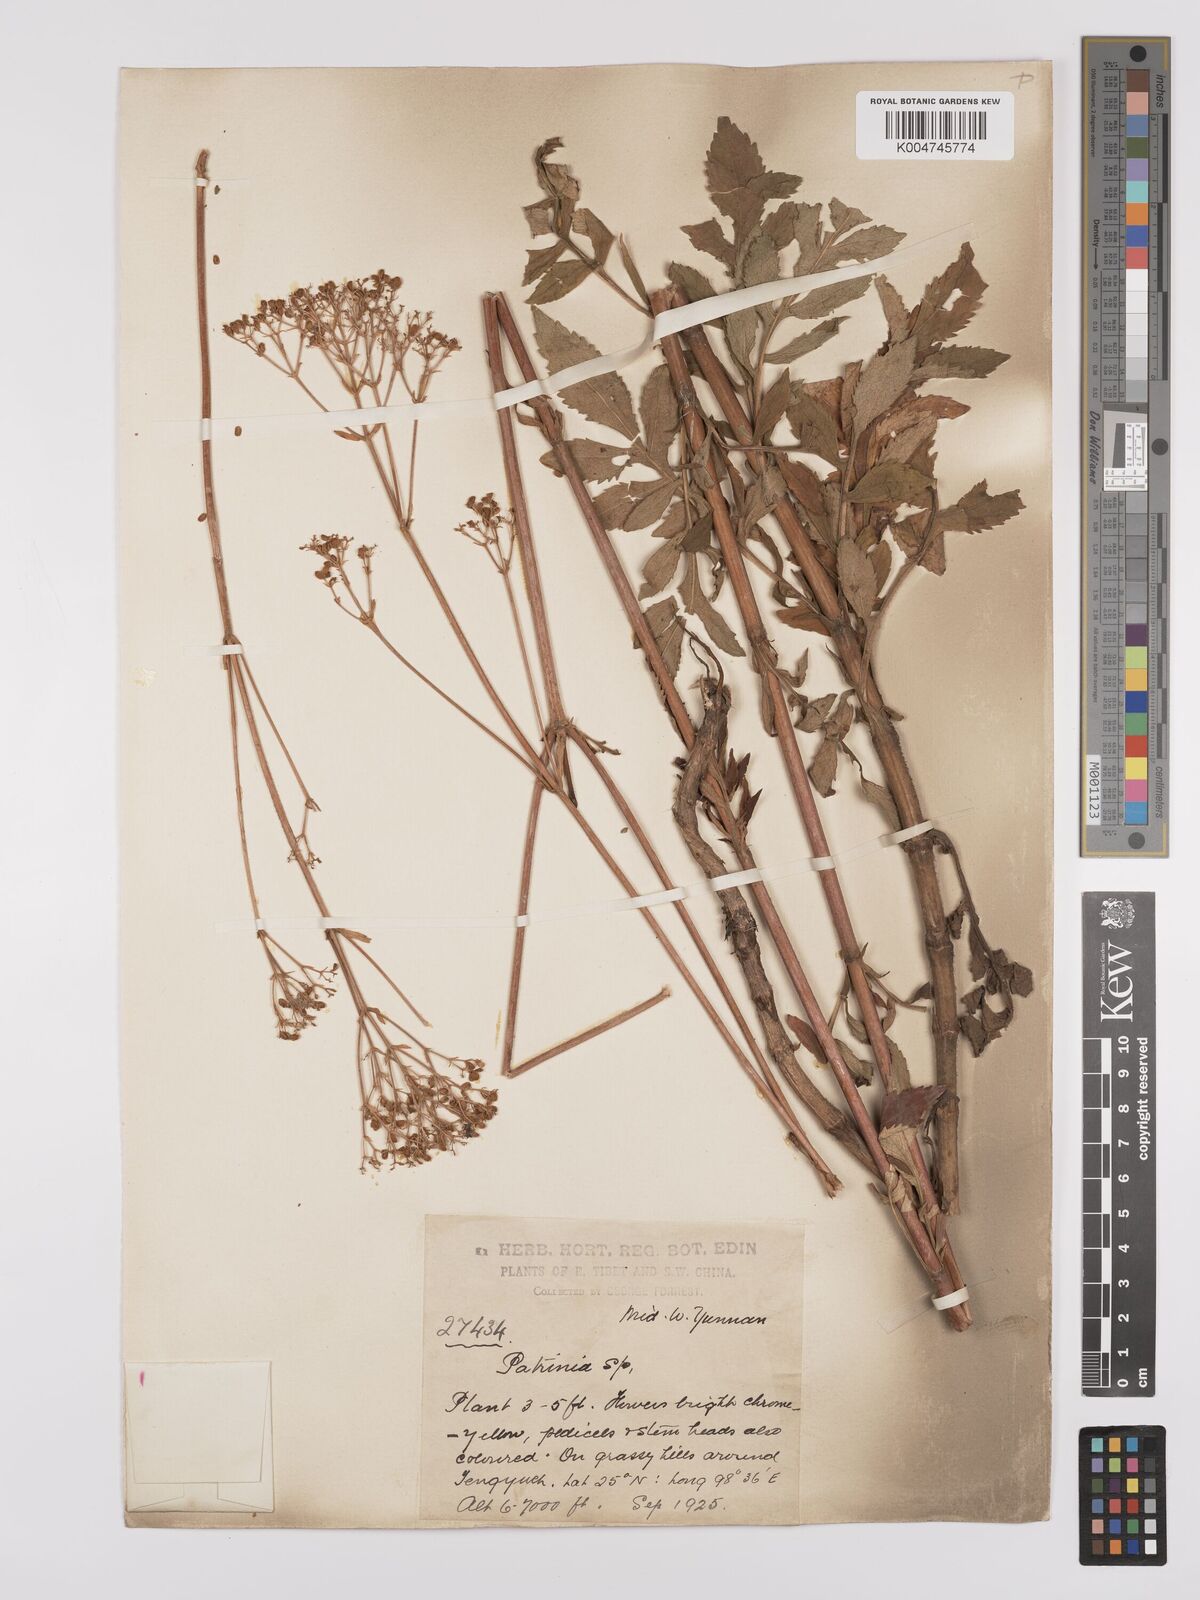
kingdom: Plantae
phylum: Tracheophyta
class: Magnoliopsida
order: Dipsacales
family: Caprifoliaceae
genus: Patrinia
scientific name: Patrinia
